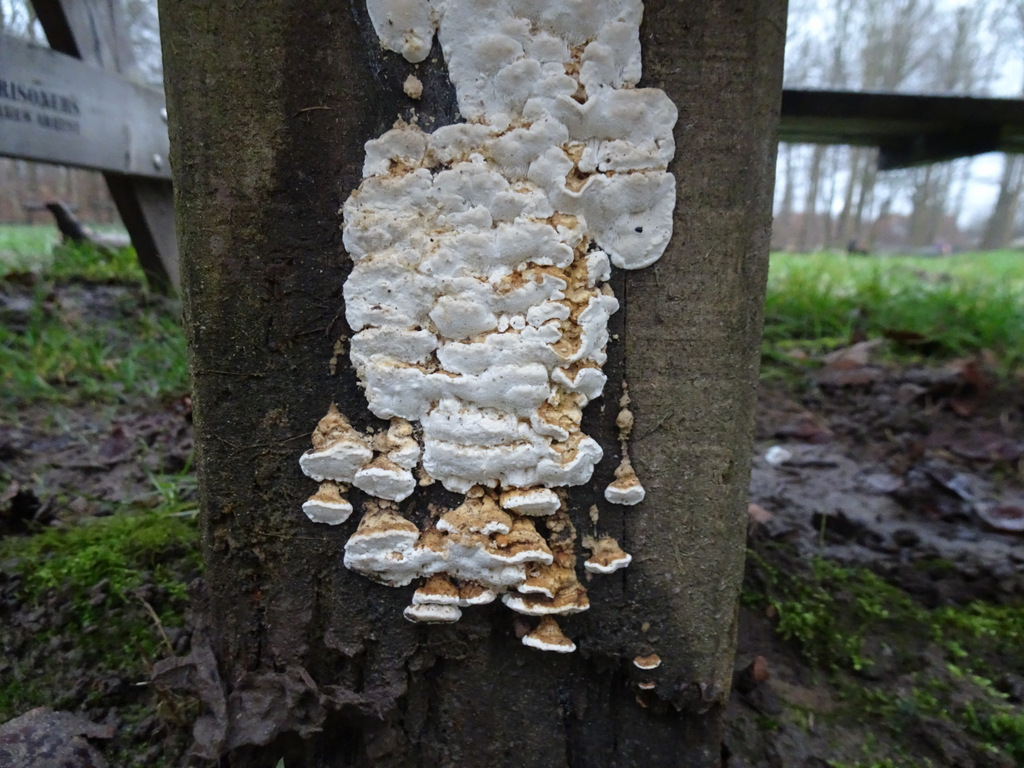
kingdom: Fungi
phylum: Basidiomycota
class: Agaricomycetes
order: Polyporales
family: Fomitopsidaceae
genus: Neoantrodia
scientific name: Neoantrodia serialis
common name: række-sejporesvamp
